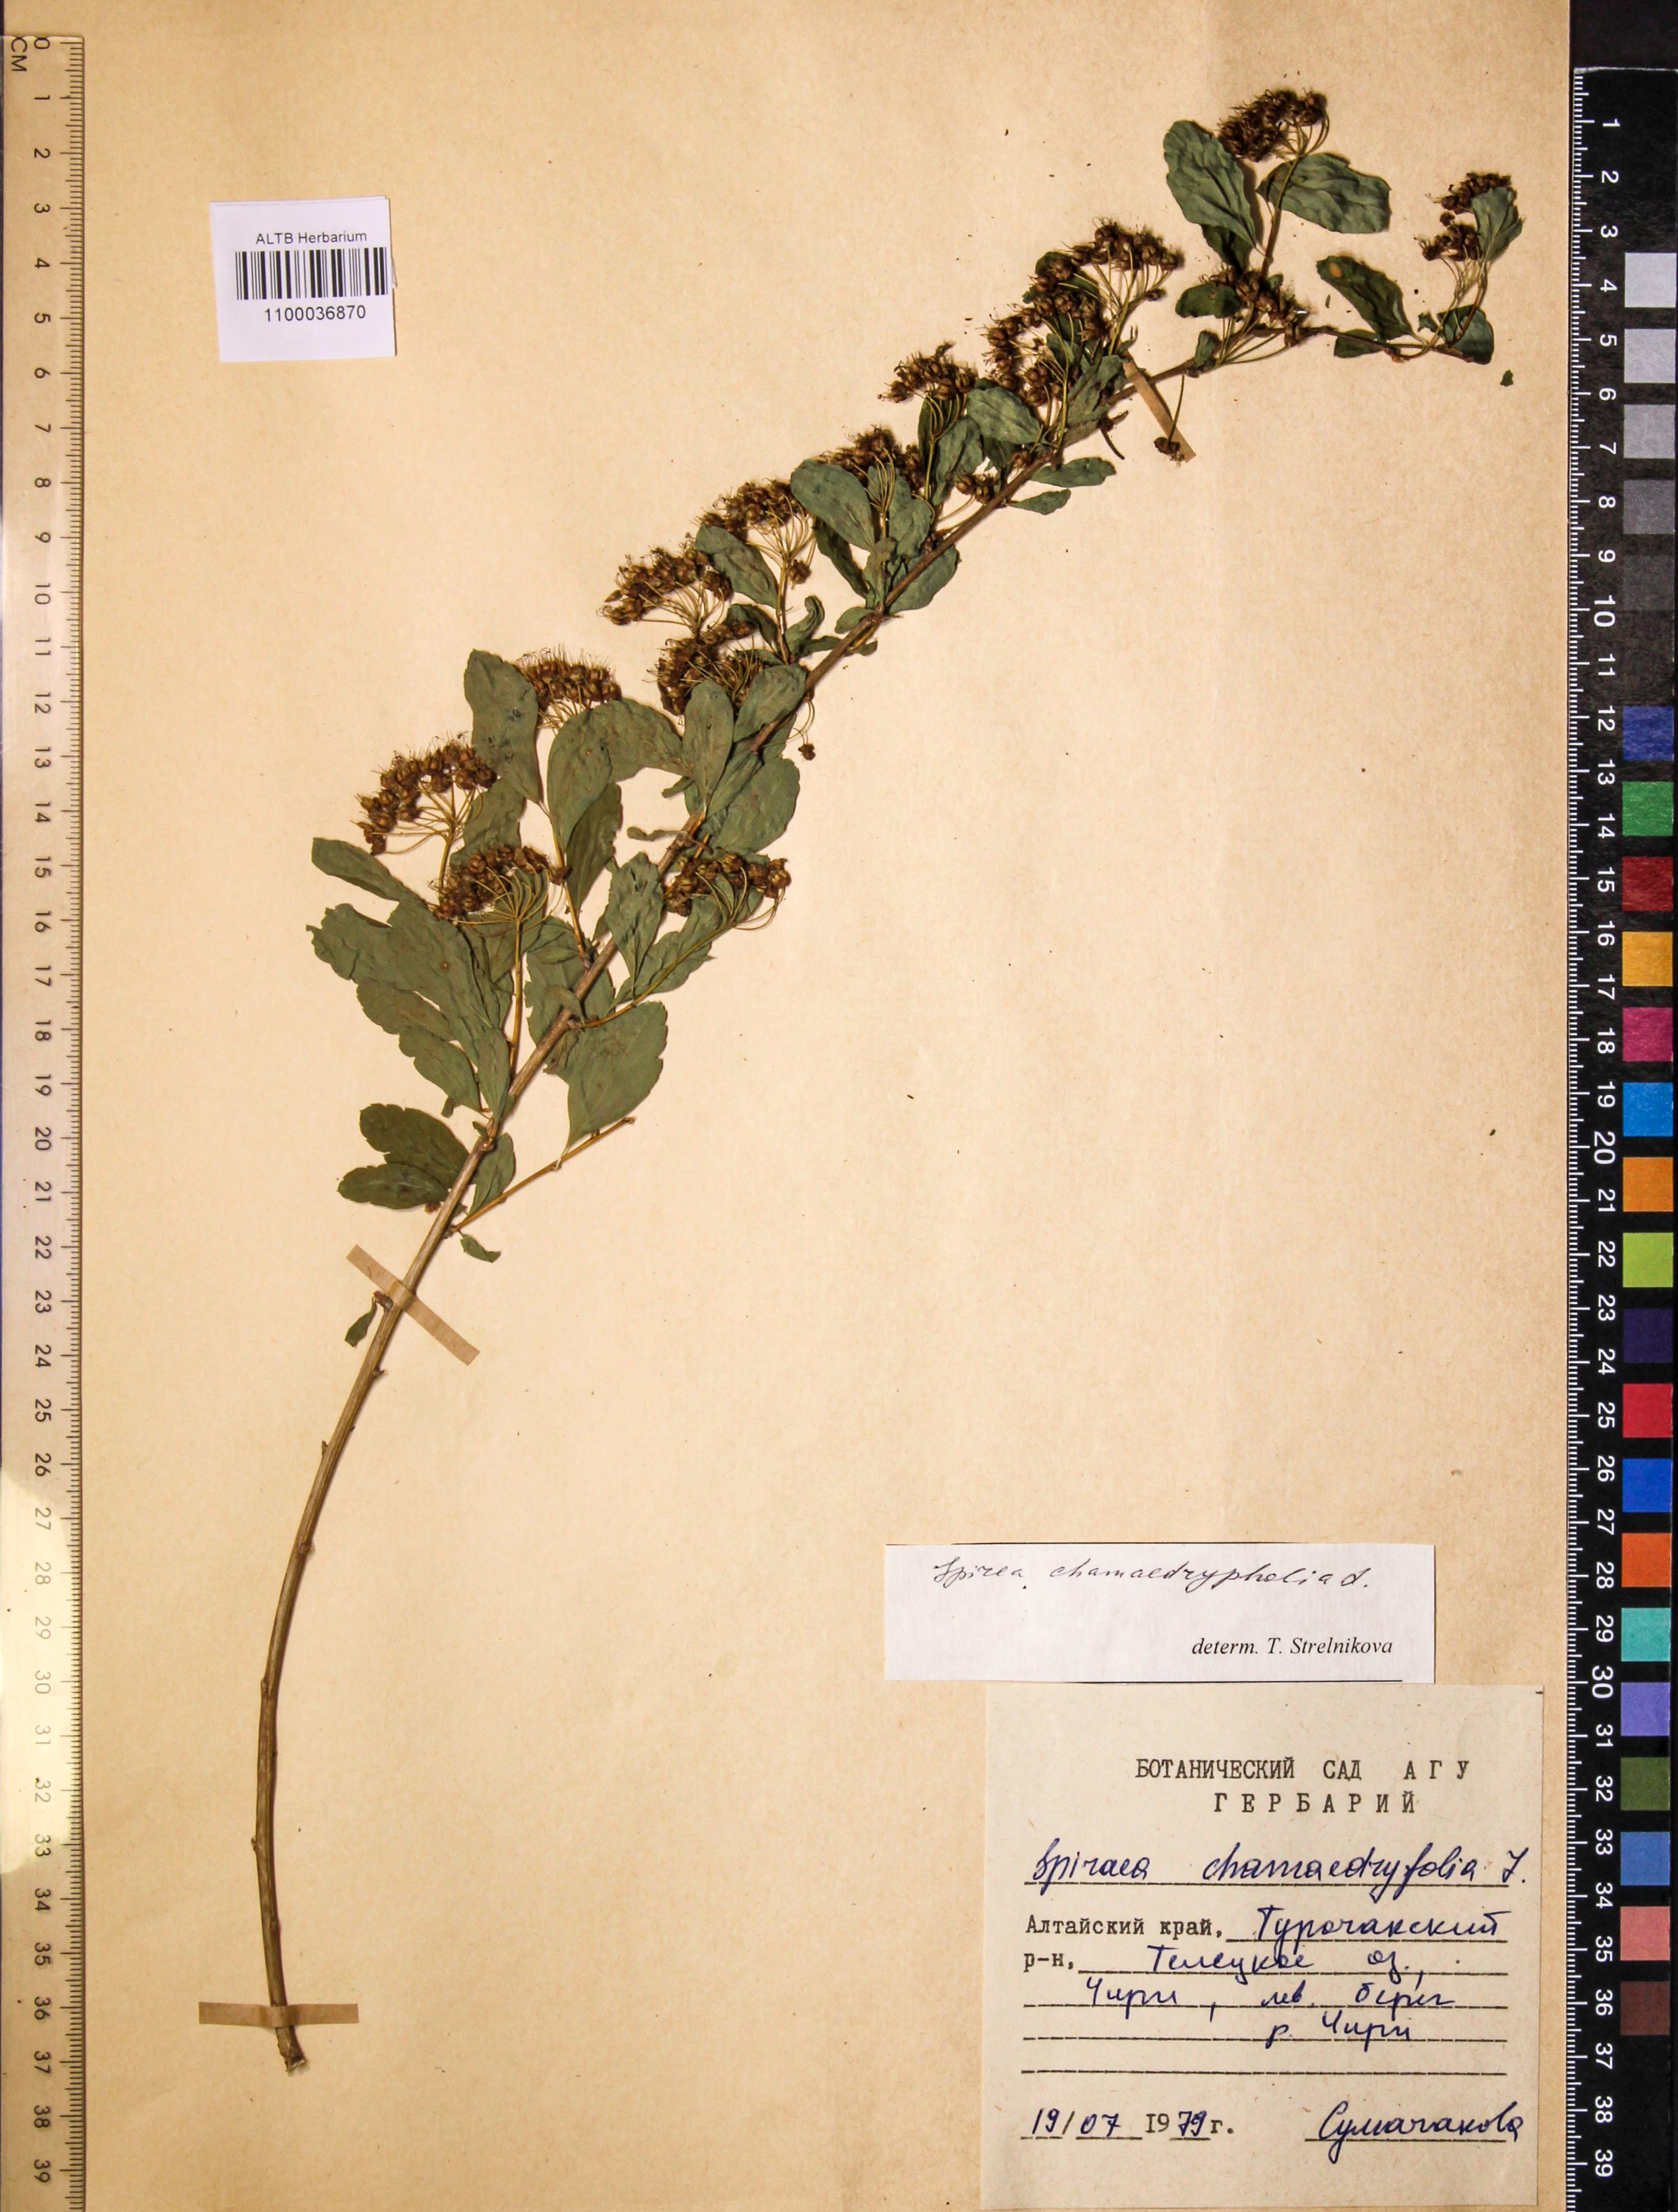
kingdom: Plantae
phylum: Tracheophyta
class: Magnoliopsida
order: Rosales
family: Rosaceae
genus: Spiraea
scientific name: Spiraea chamaedryfolia
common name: Elm-leaved spiraea
